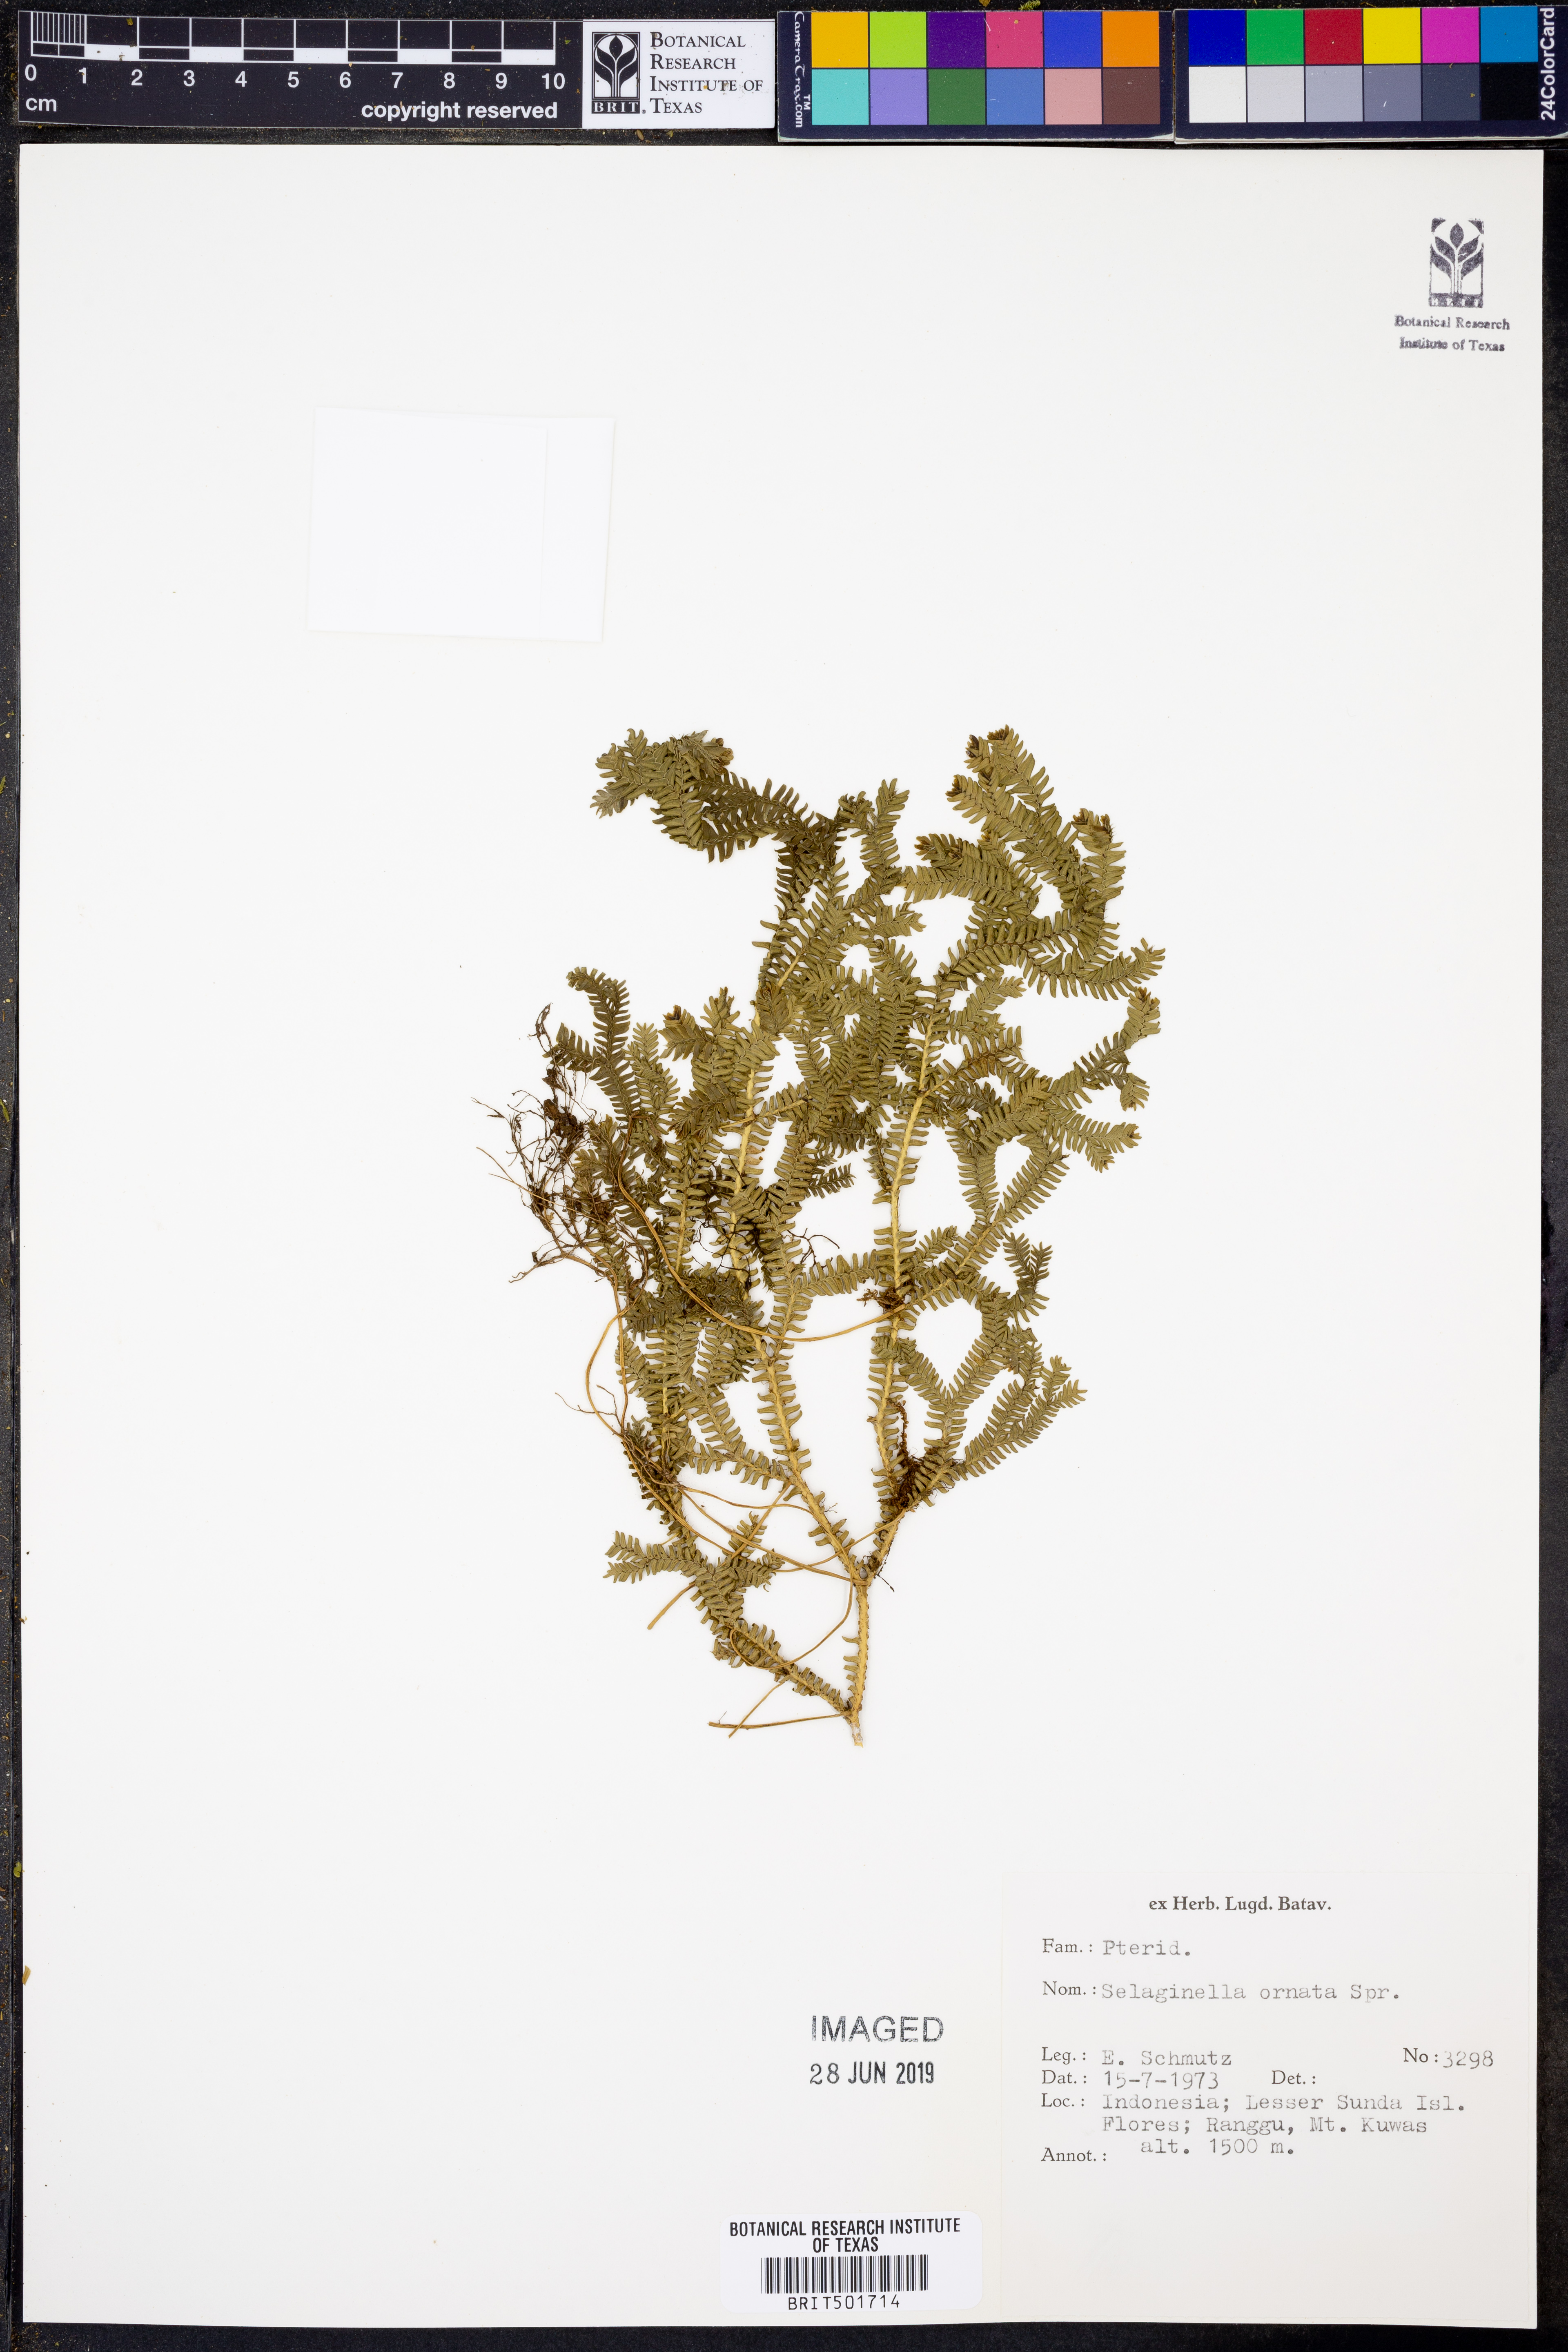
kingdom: Plantae
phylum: Tracheophyta
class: Lycopodiopsida
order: Selaginellales
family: Selaginellaceae
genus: Selaginella
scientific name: Selaginella ornata
